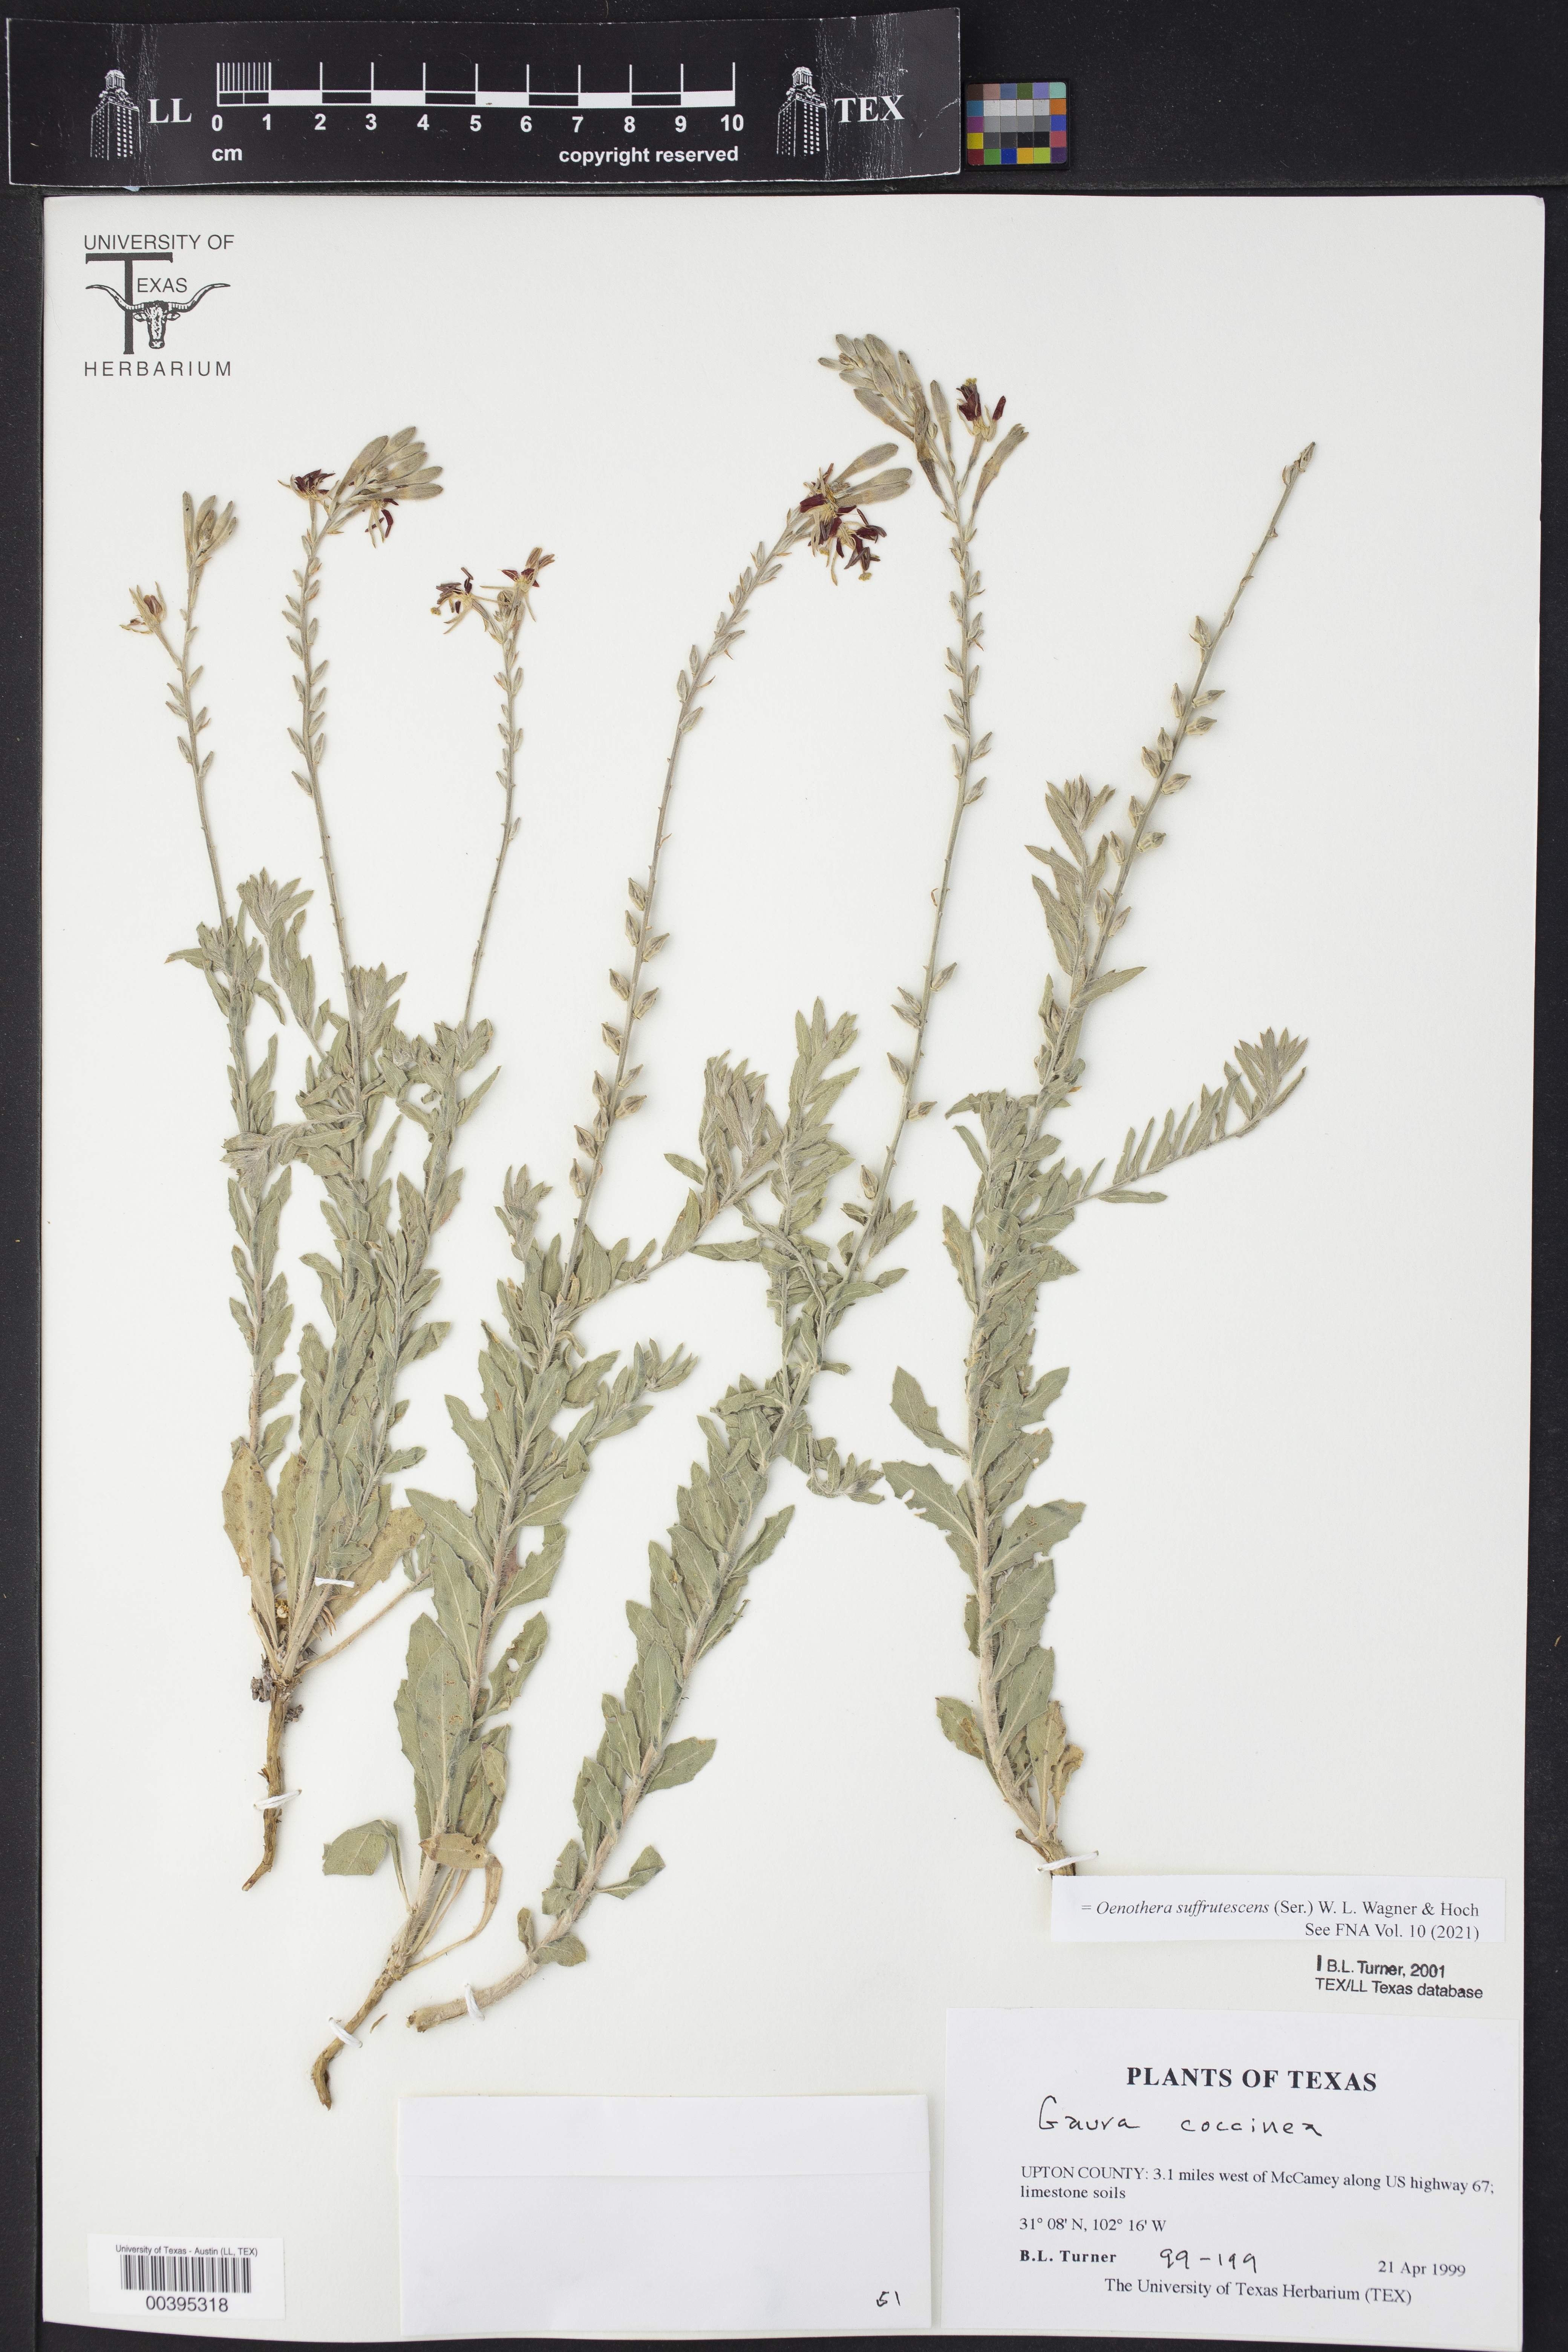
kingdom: Plantae
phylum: Tracheophyta
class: Magnoliopsida
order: Myrtales
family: Onagraceae
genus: Oenothera
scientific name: Oenothera suffrutescens
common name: Scarlet beeblossom
